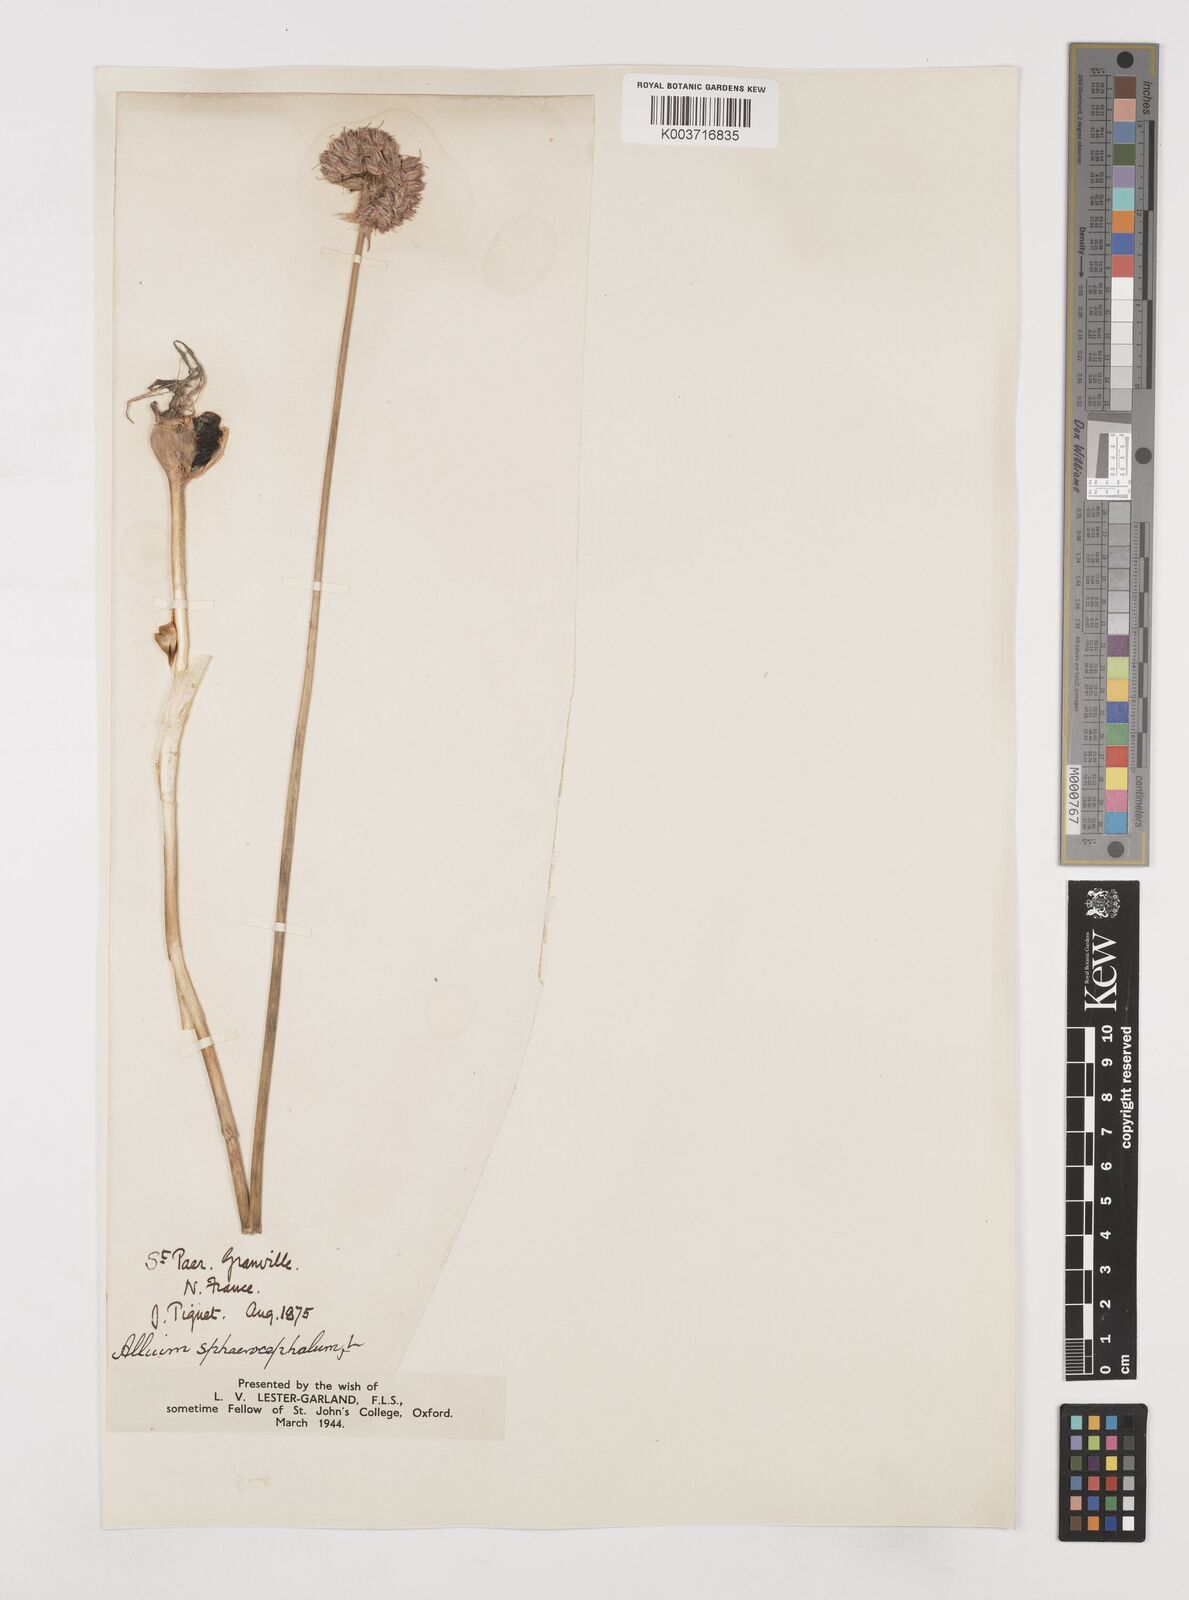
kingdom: Plantae
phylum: Tracheophyta
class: Liliopsida
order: Asparagales
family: Amaryllidaceae
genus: Allium
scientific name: Allium sphaerocephalon
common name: Round-headed leek
